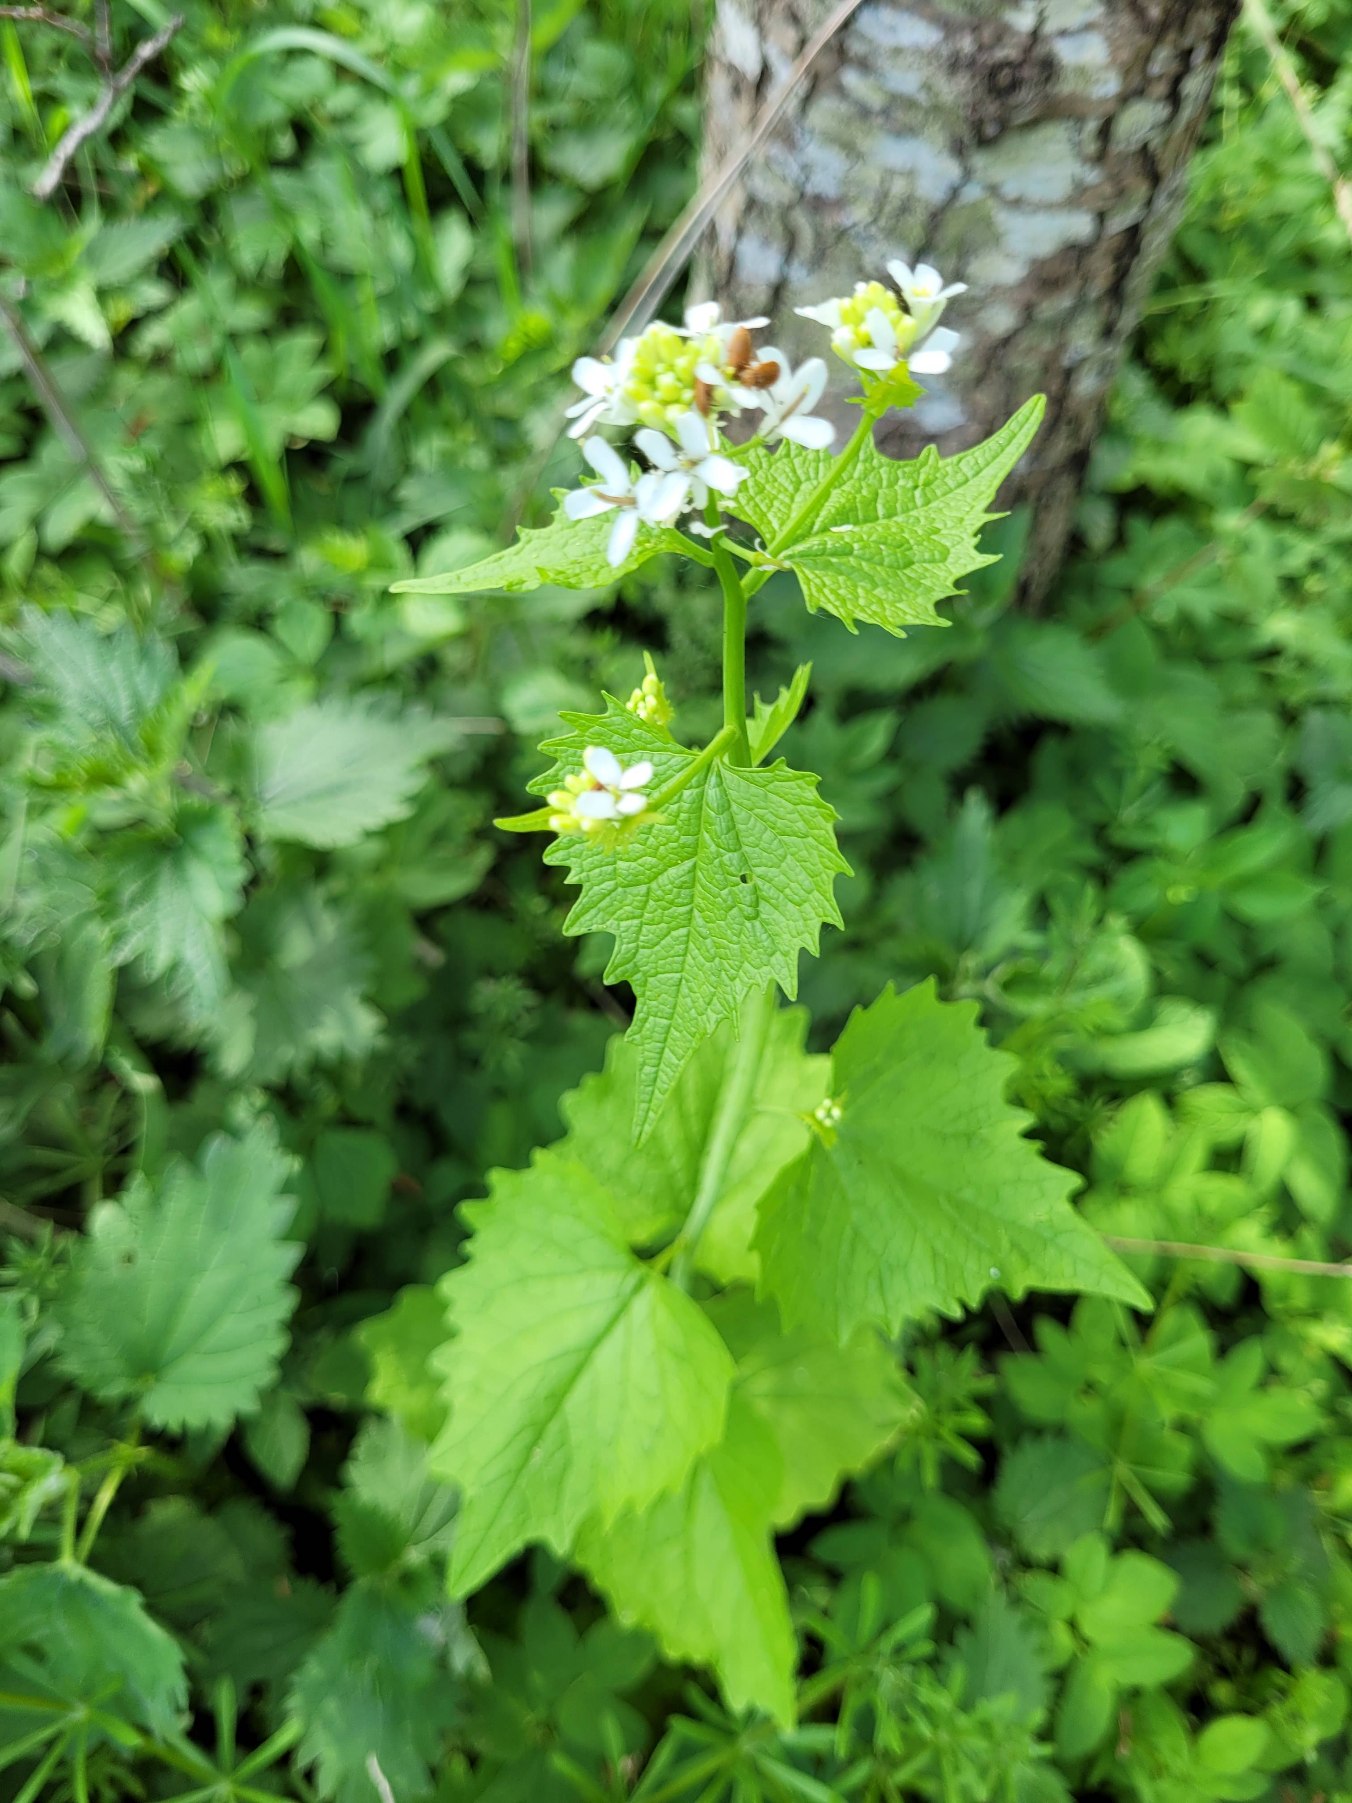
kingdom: Plantae
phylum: Tracheophyta
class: Magnoliopsida
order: Brassicales
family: Brassicaceae
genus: Alliaria
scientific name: Alliaria petiolata
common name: Løgkarse
